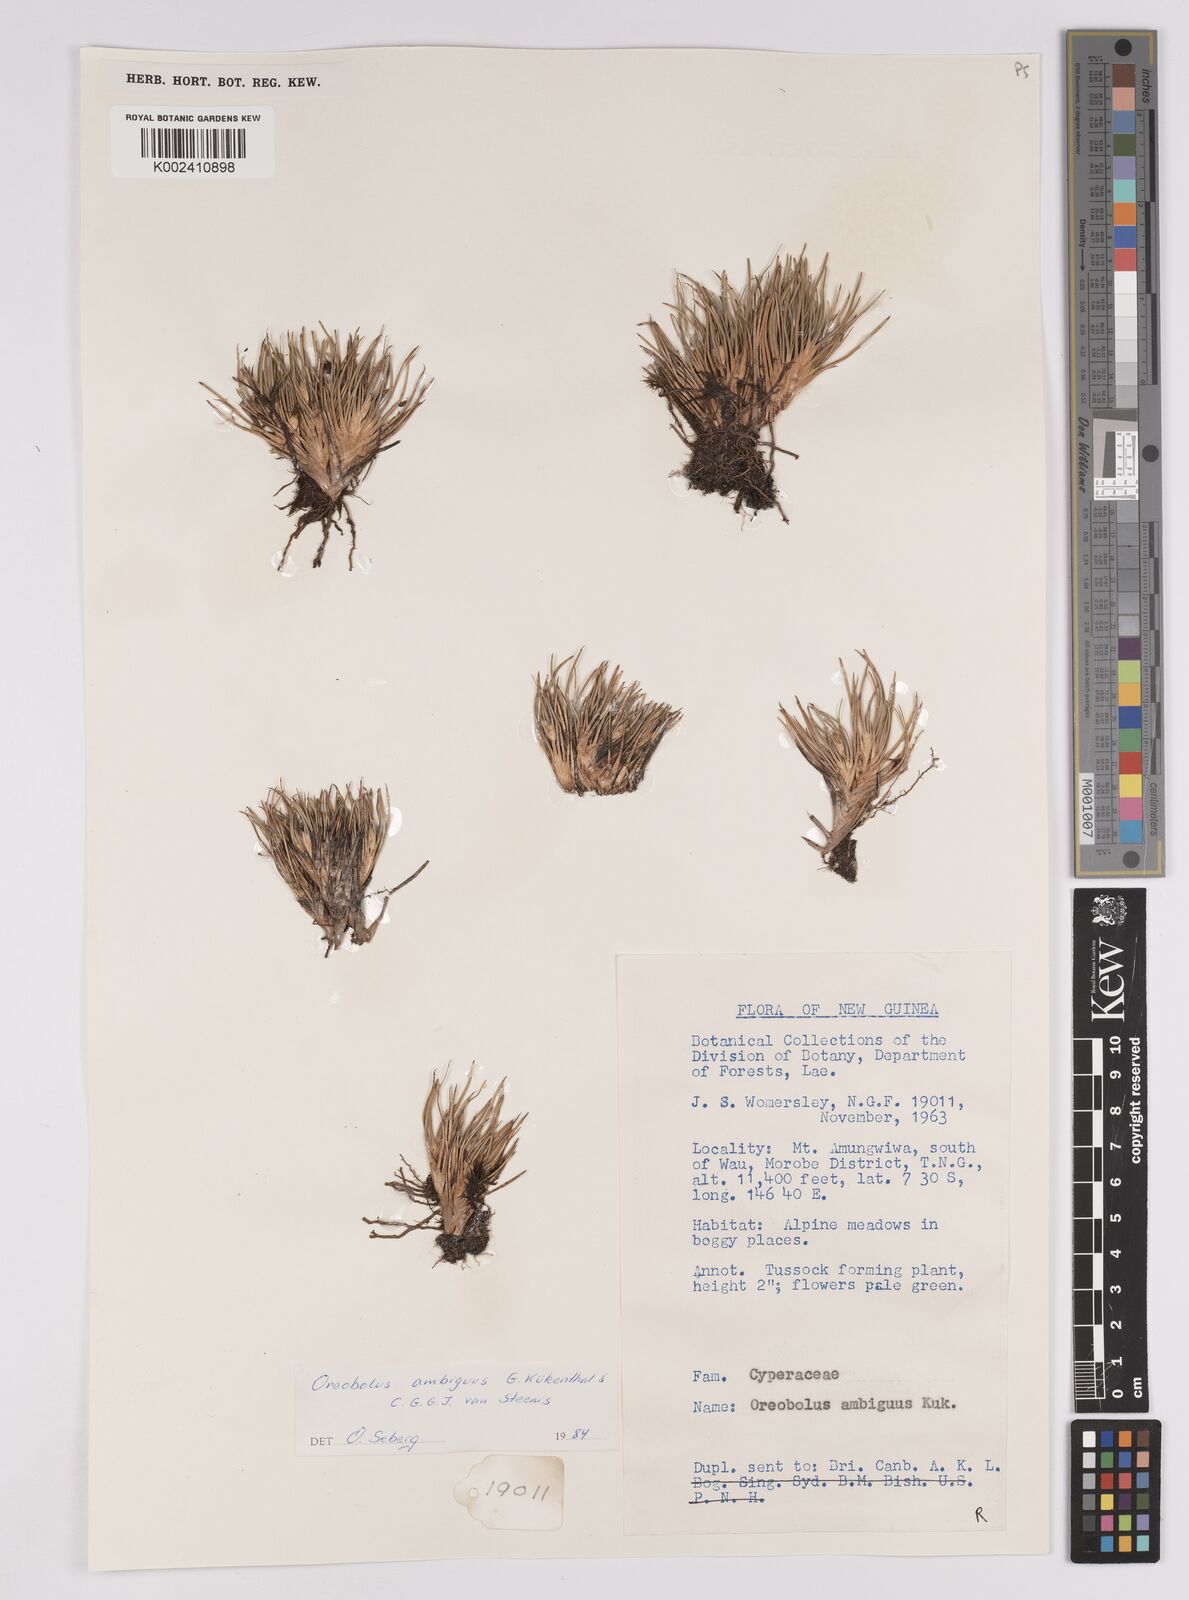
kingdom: Plantae
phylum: Tracheophyta
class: Liliopsida
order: Poales
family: Cyperaceae
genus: Oreobolus
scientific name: Oreobolus ambiguus
